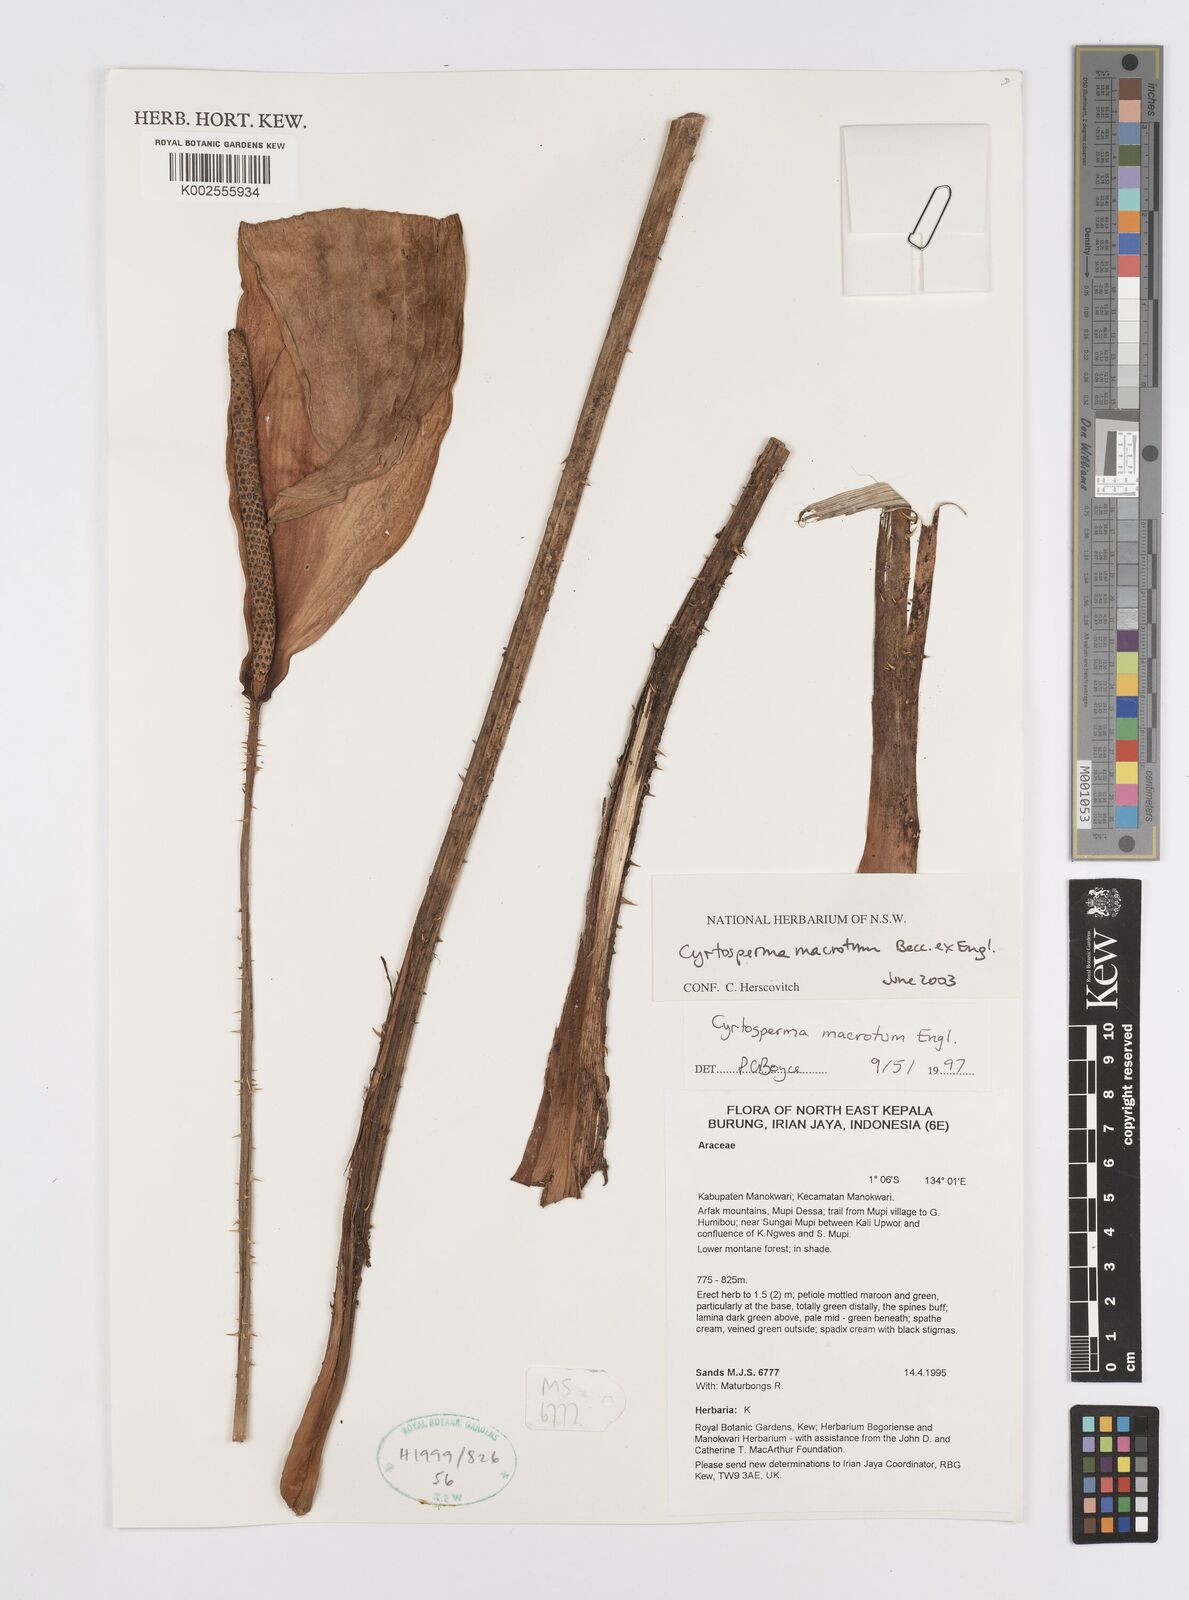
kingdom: Plantae
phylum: Tracheophyta
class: Liliopsida
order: Alismatales
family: Araceae
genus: Cyrtosperma
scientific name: Cyrtosperma macrotum
